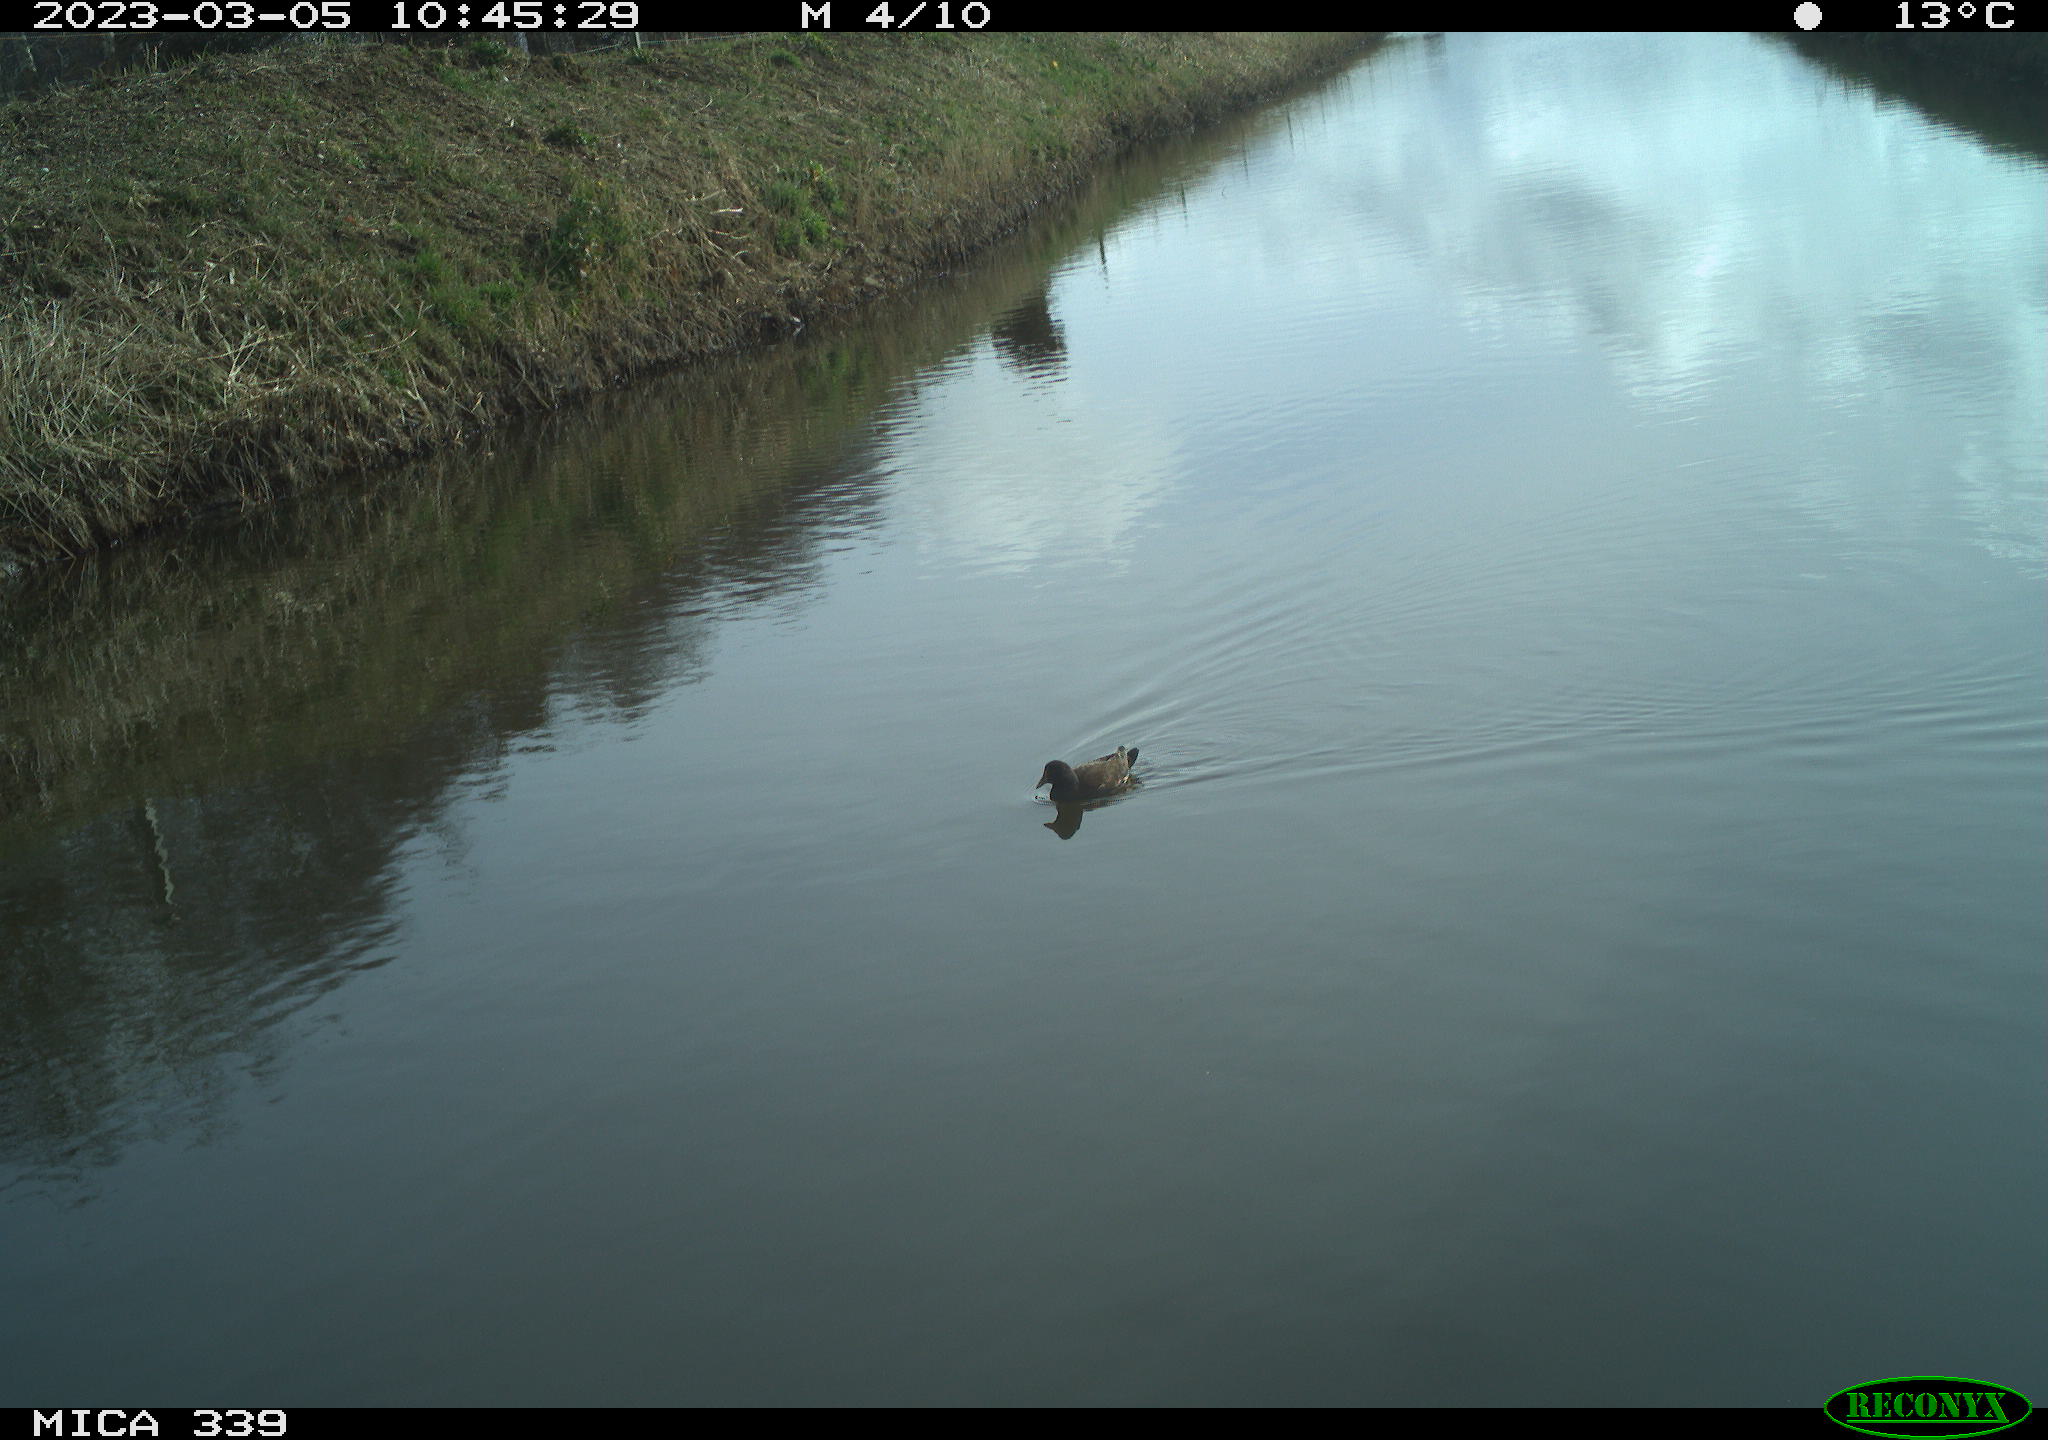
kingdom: Animalia
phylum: Chordata
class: Aves
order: Gruiformes
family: Rallidae
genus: Gallinula
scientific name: Gallinula chloropus
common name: Common moorhen
